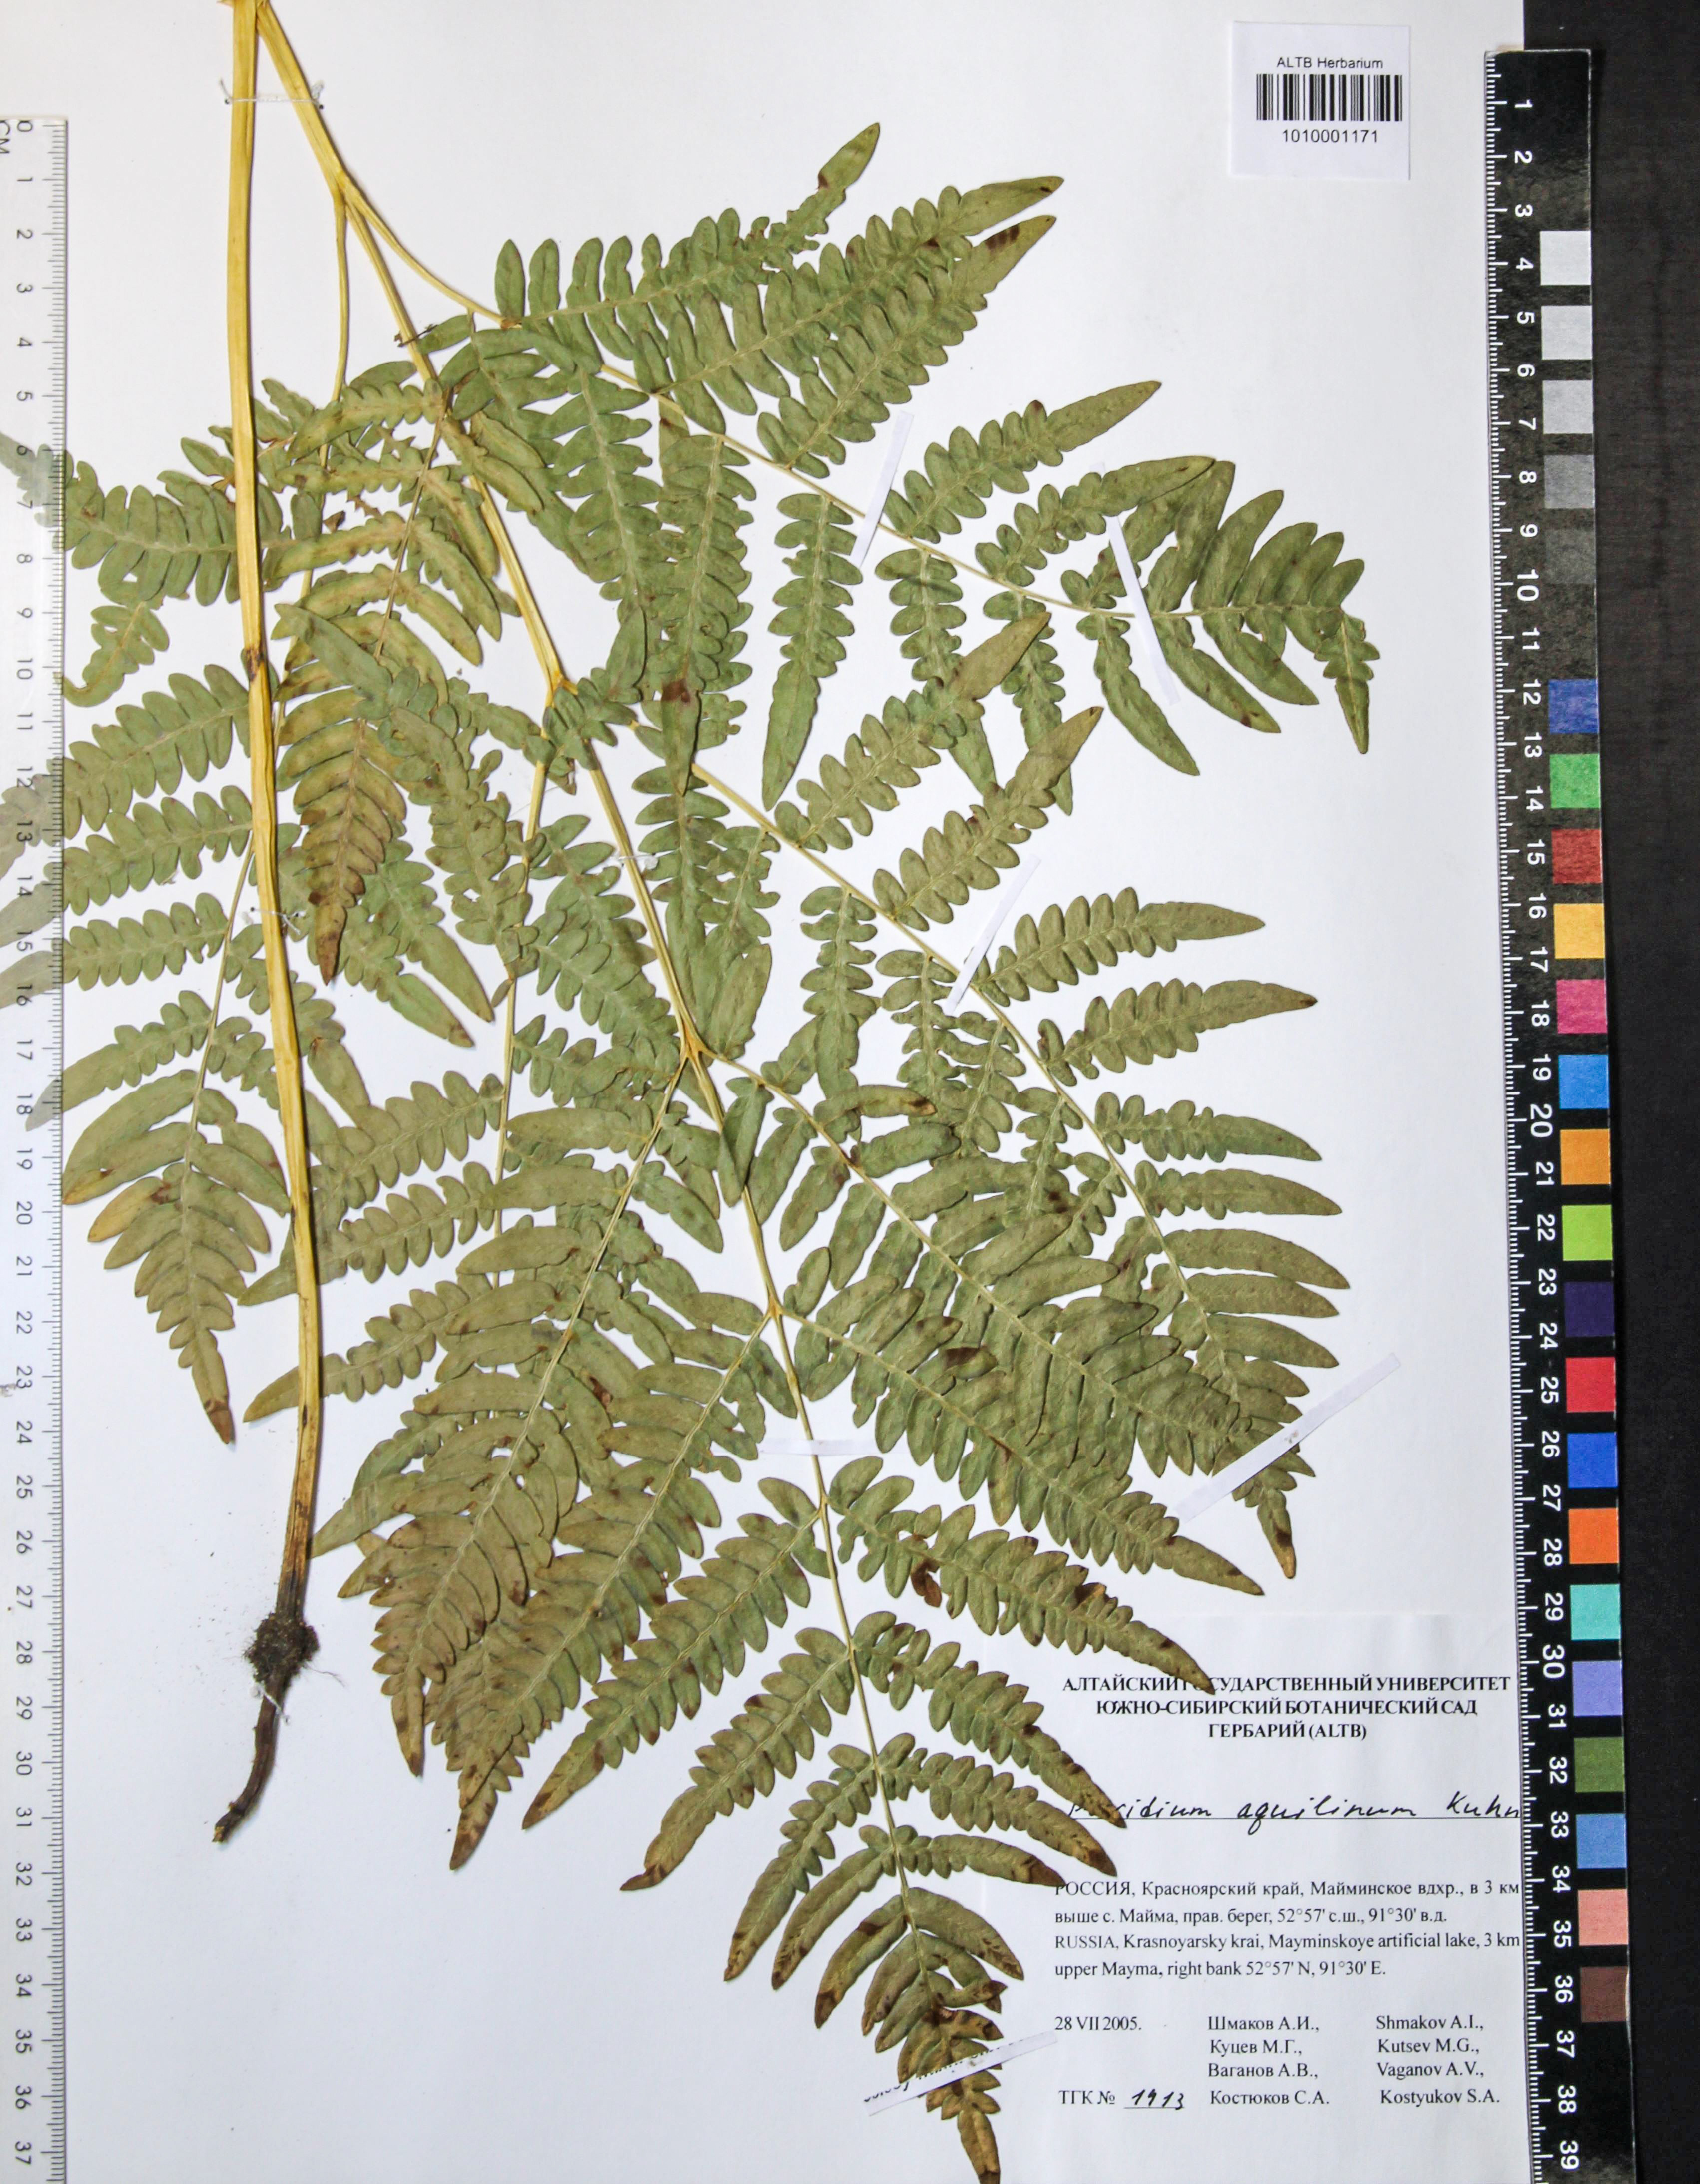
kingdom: Plantae
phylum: Tracheophyta
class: Polypodiopsida
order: Polypodiales
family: Dennstaedtiaceae
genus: Pteridium
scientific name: Pteridium aquilinum
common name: Bracken
